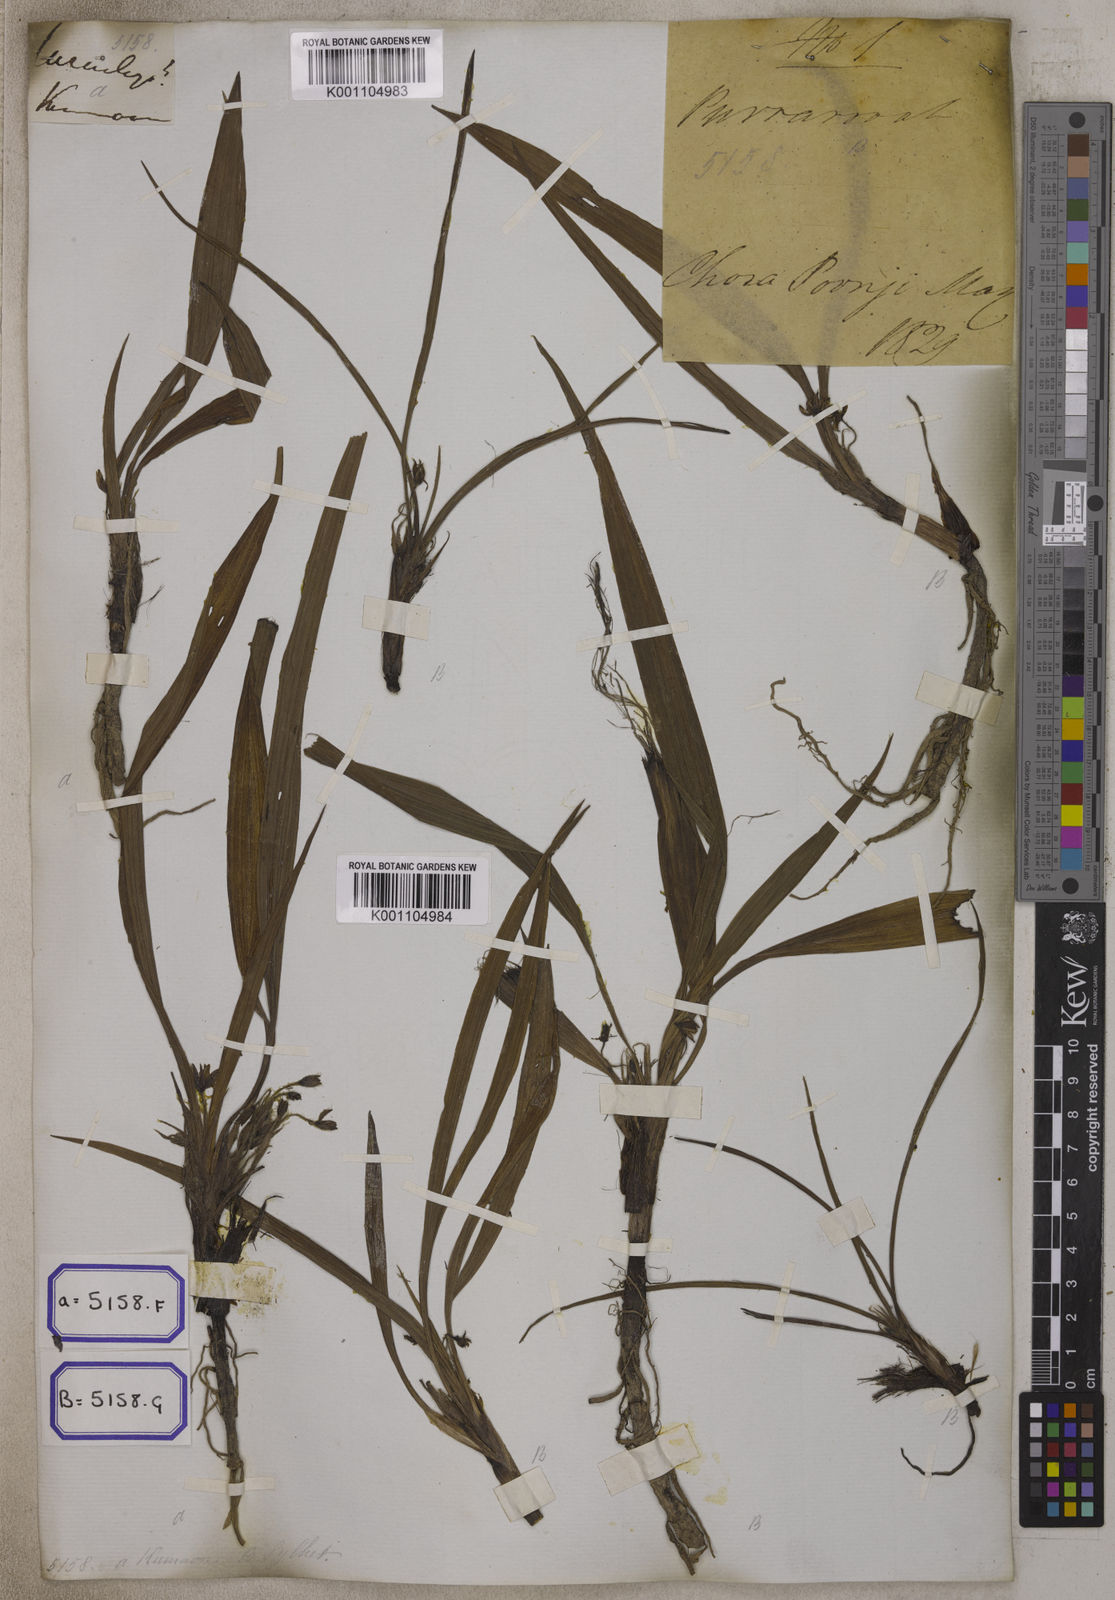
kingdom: Plantae
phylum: Tracheophyta
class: Liliopsida
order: Asparagales
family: Hypoxidaceae
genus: Curculigo
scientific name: Curculigo orchioides
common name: Golden eye-grass
